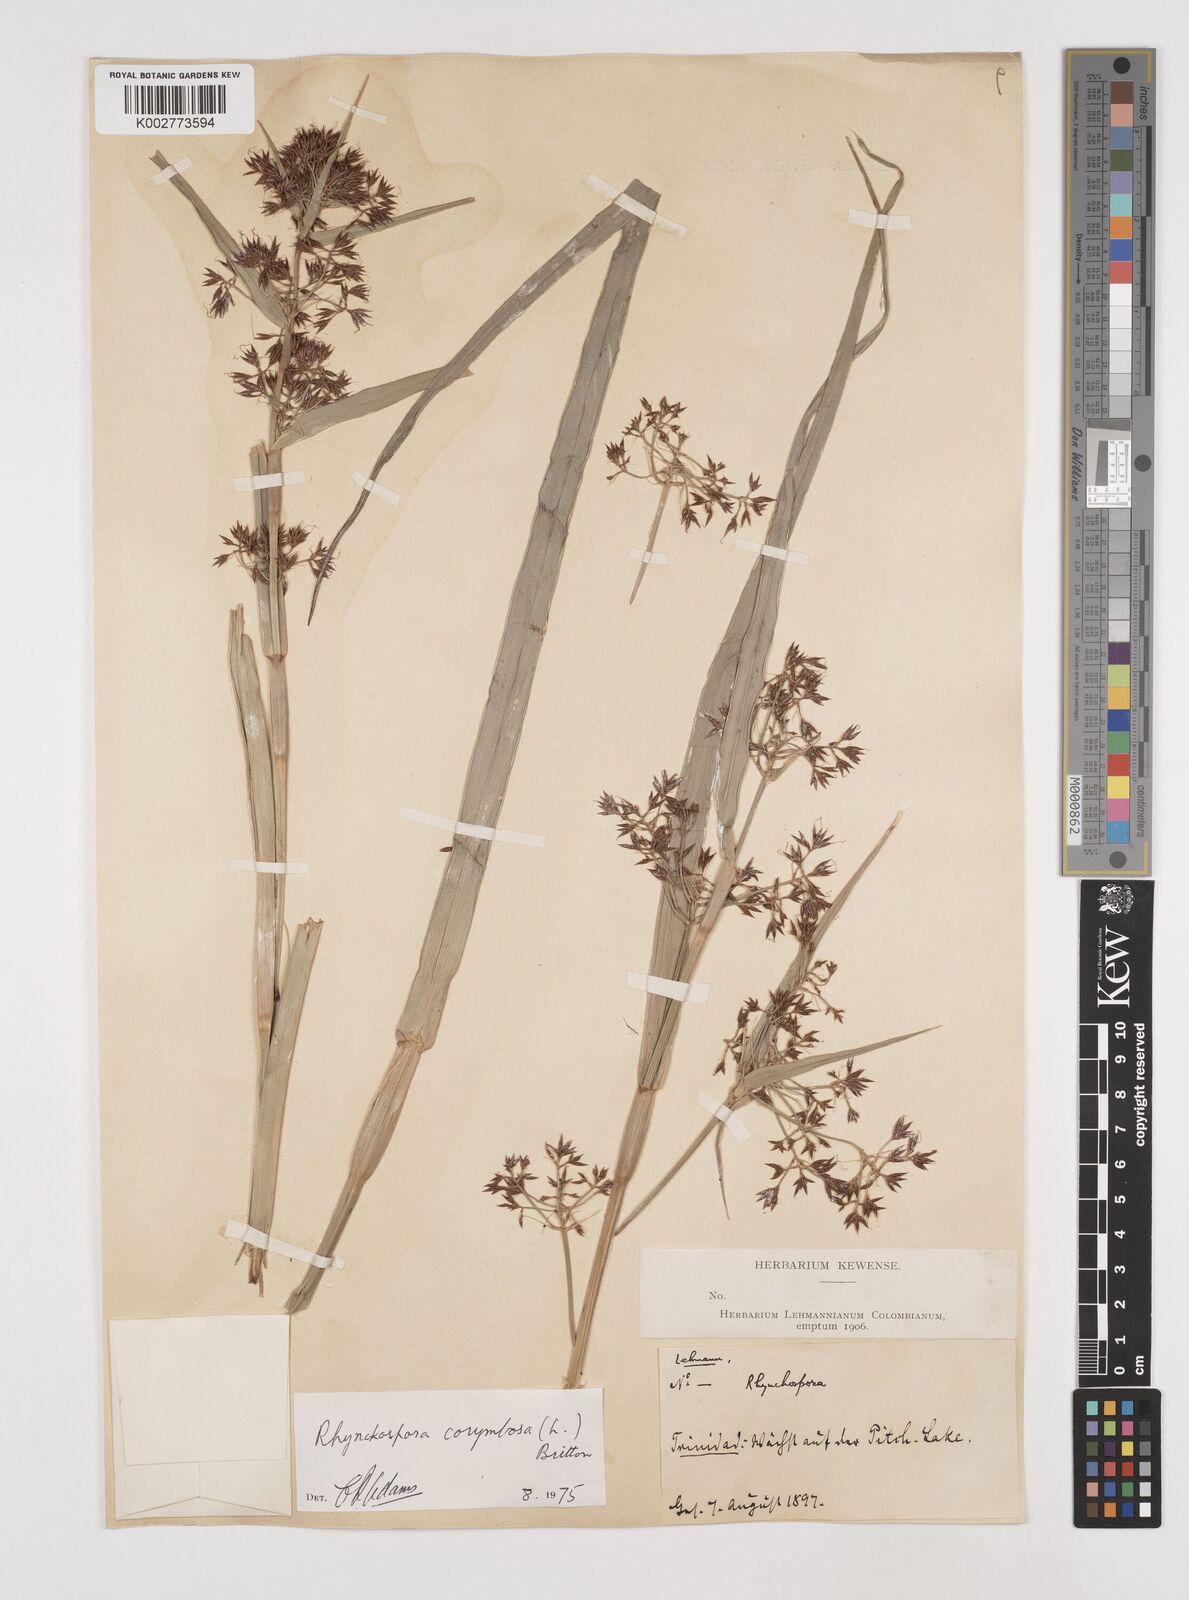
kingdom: Plantae
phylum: Tracheophyta
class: Liliopsida
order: Poales
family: Cyperaceae
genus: Rhynchospora
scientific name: Rhynchospora corymbosa
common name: Golden beak sedge
